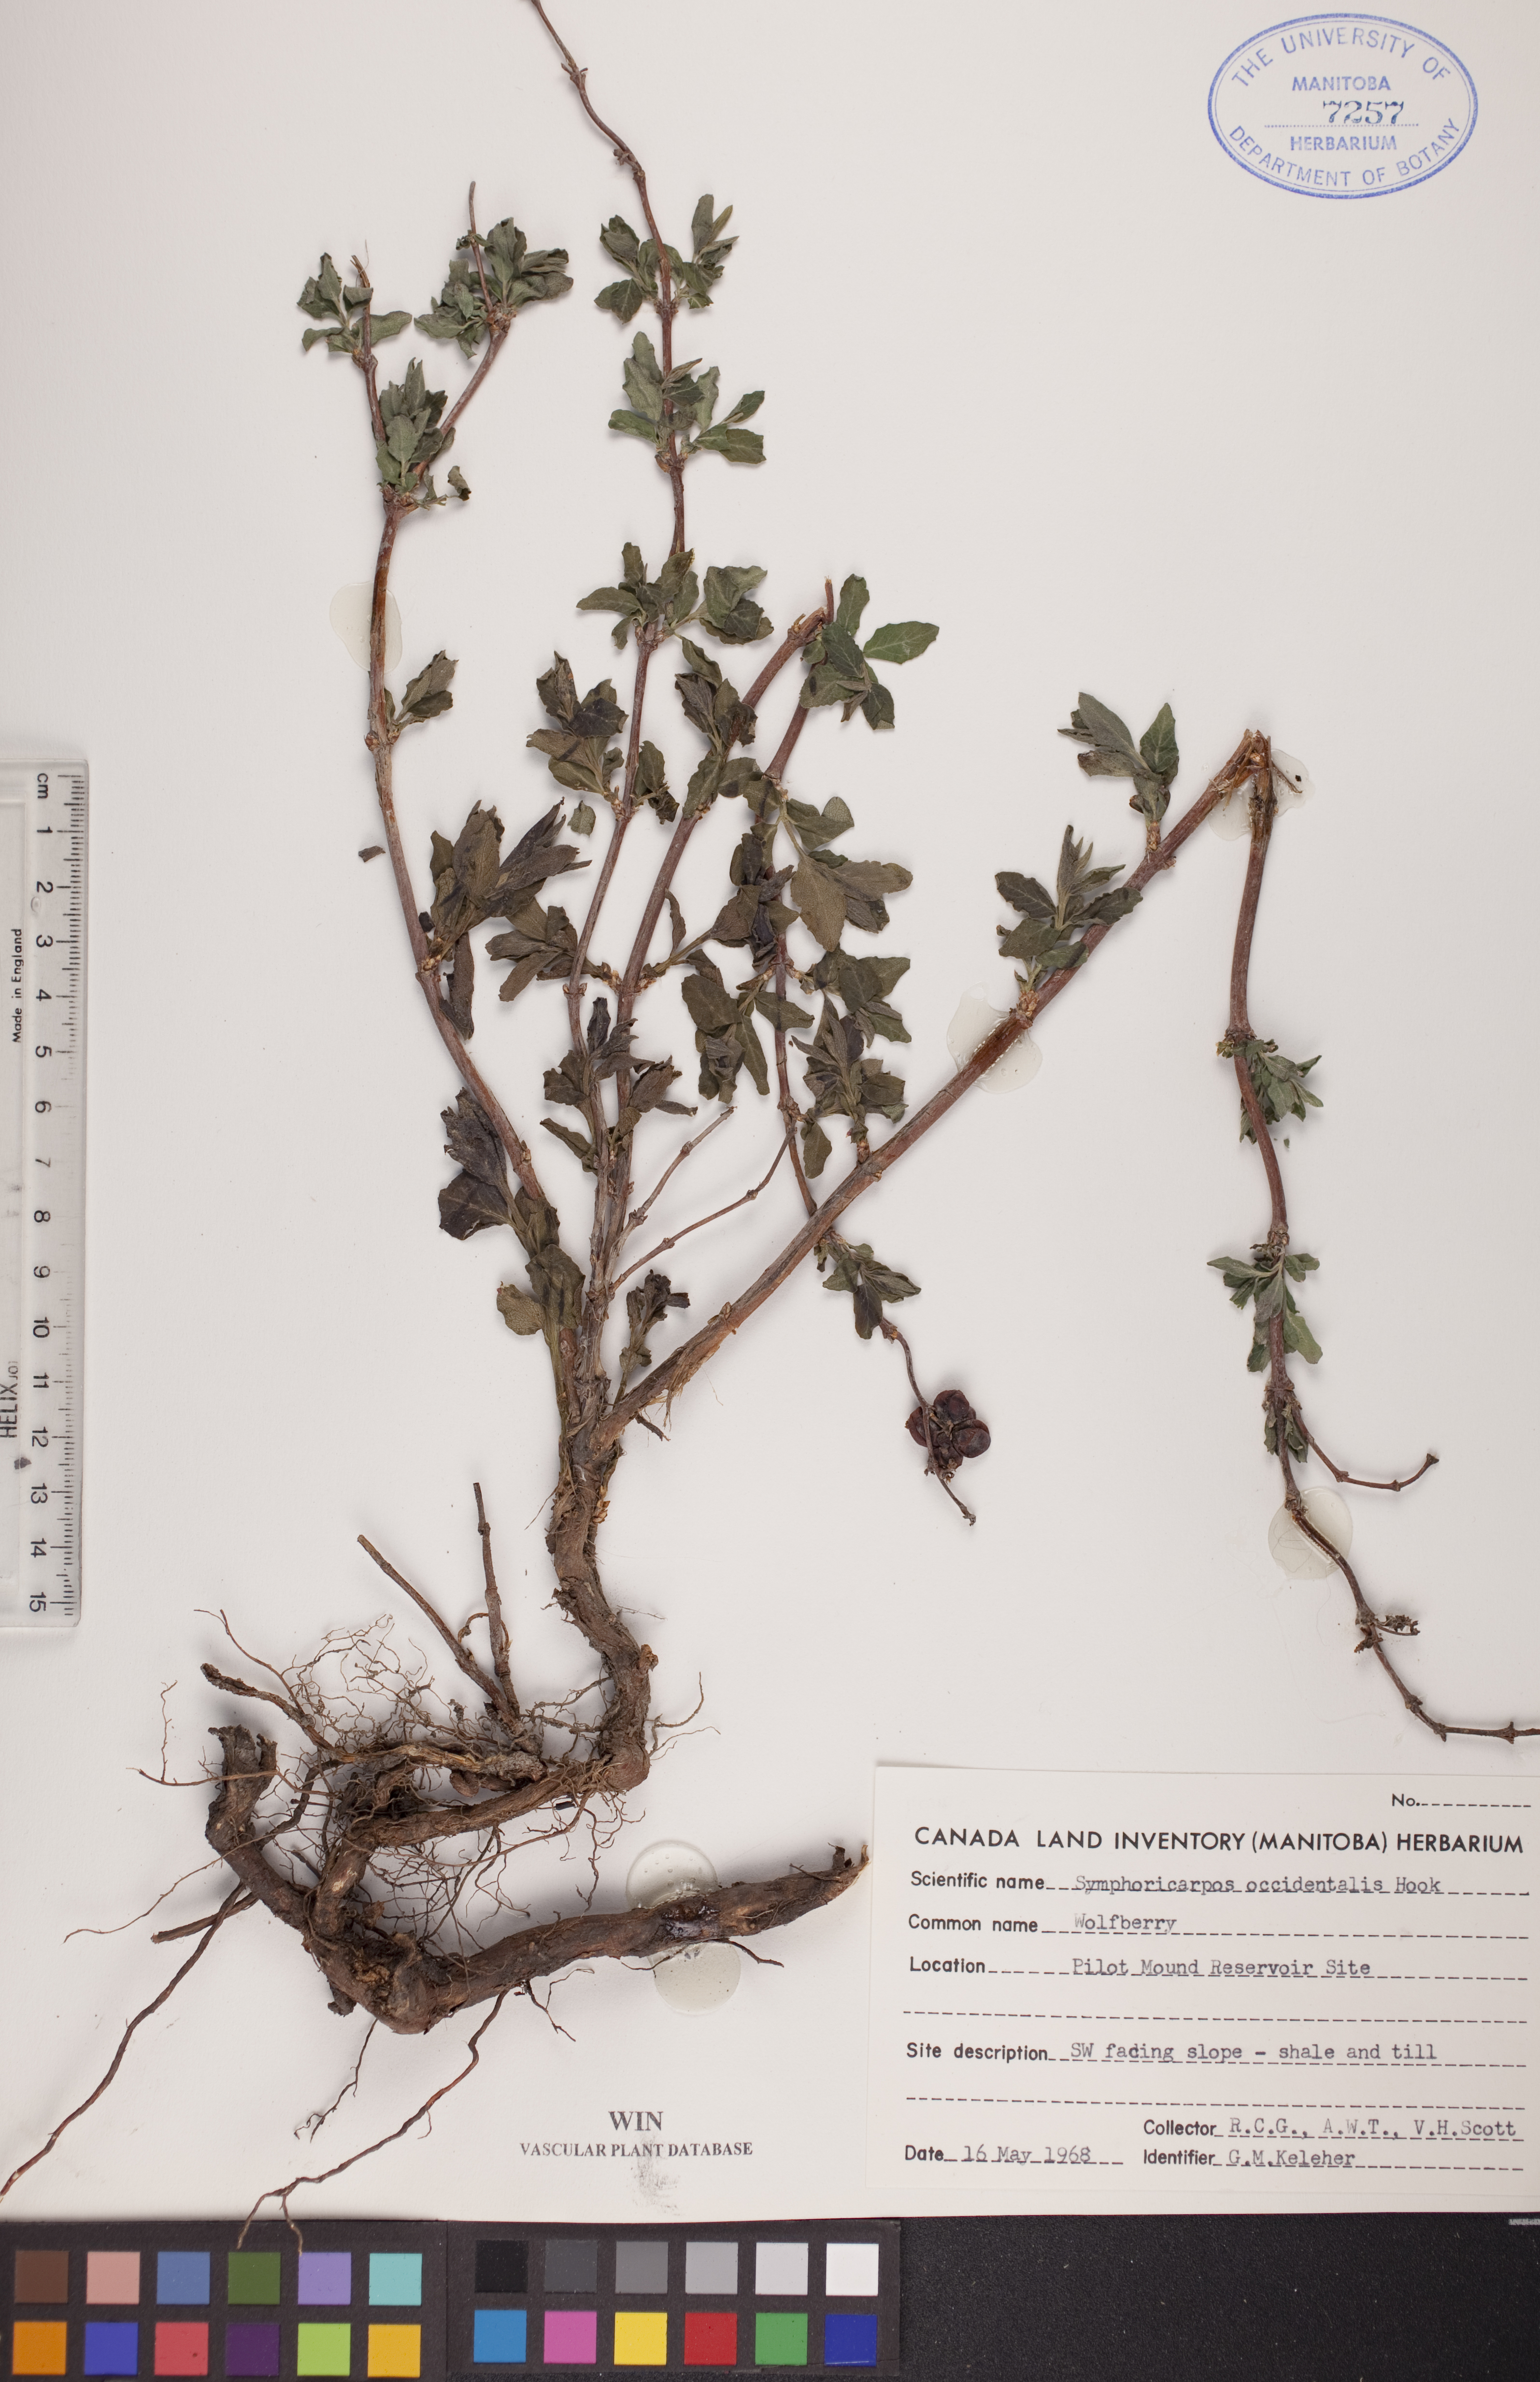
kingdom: Plantae
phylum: Tracheophyta
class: Magnoliopsida
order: Dipsacales
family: Caprifoliaceae
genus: Symphoricarpos
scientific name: Symphoricarpos occidentalis
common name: Wolfberry
